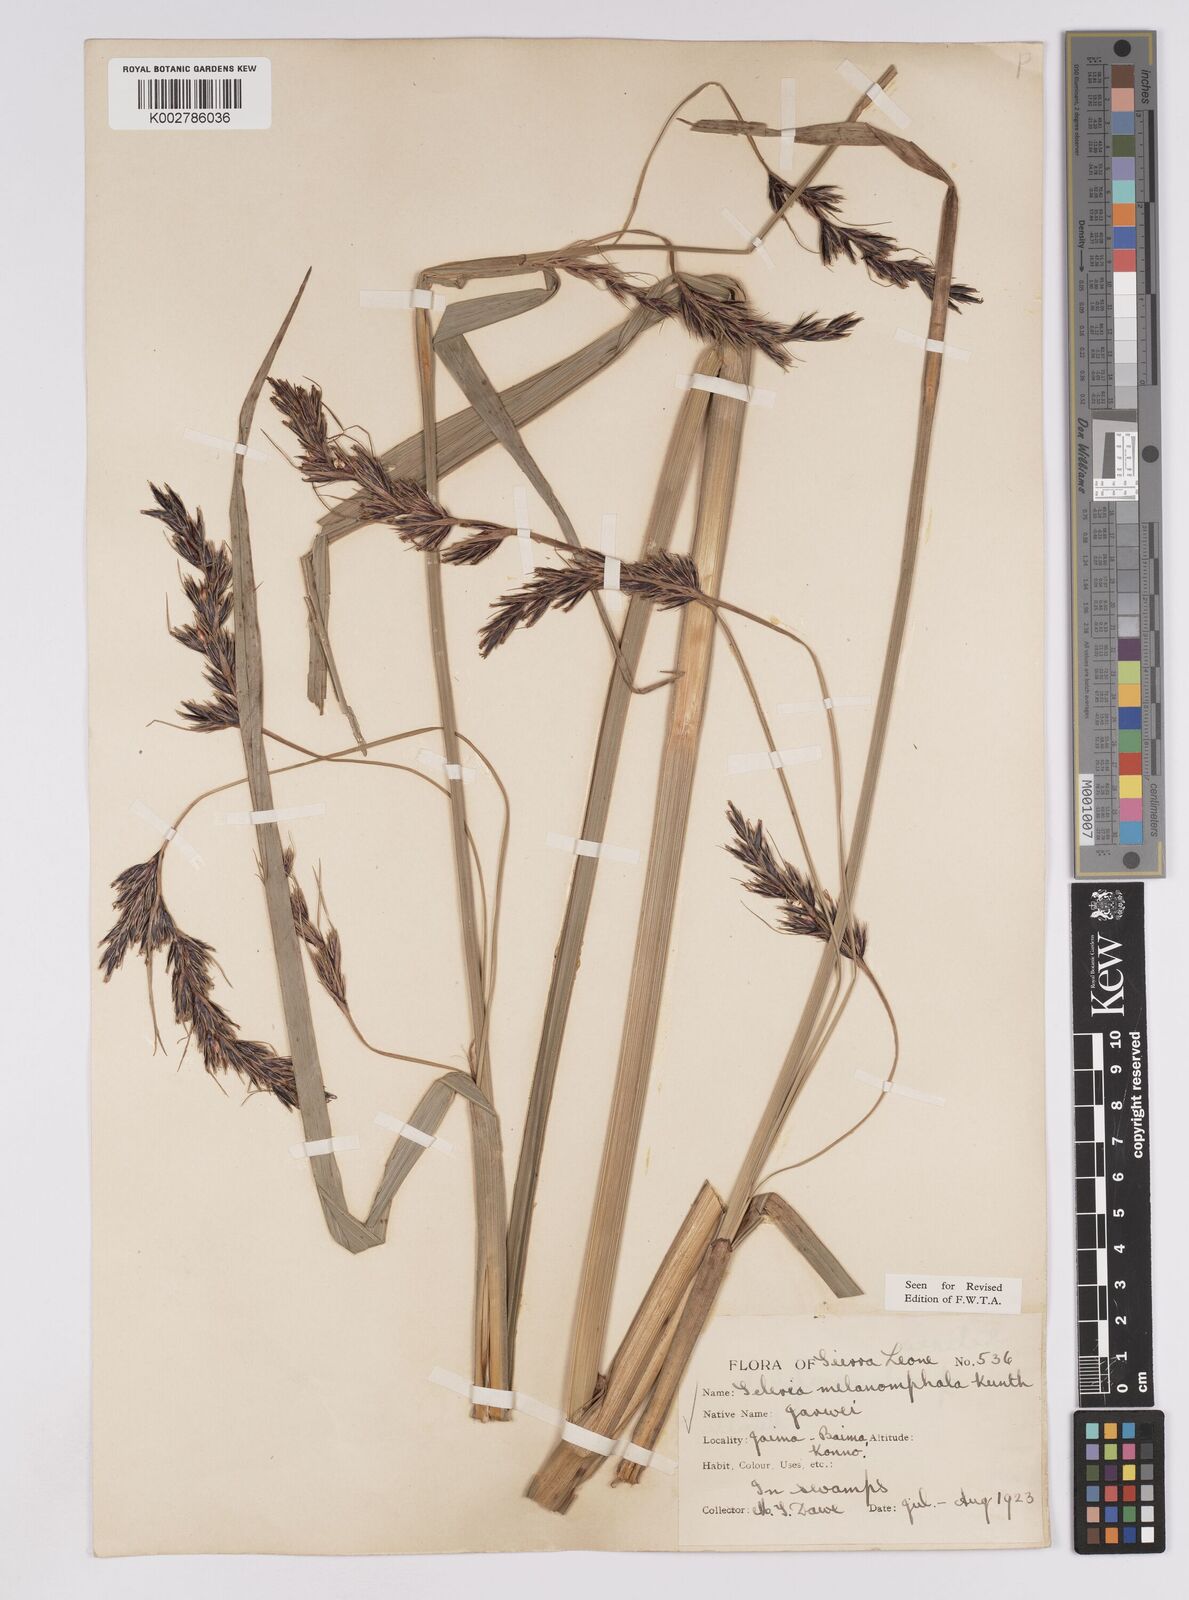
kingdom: Plantae
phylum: Tracheophyta
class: Liliopsida
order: Poales
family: Cyperaceae
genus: Scleria
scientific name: Scleria melanomphala
